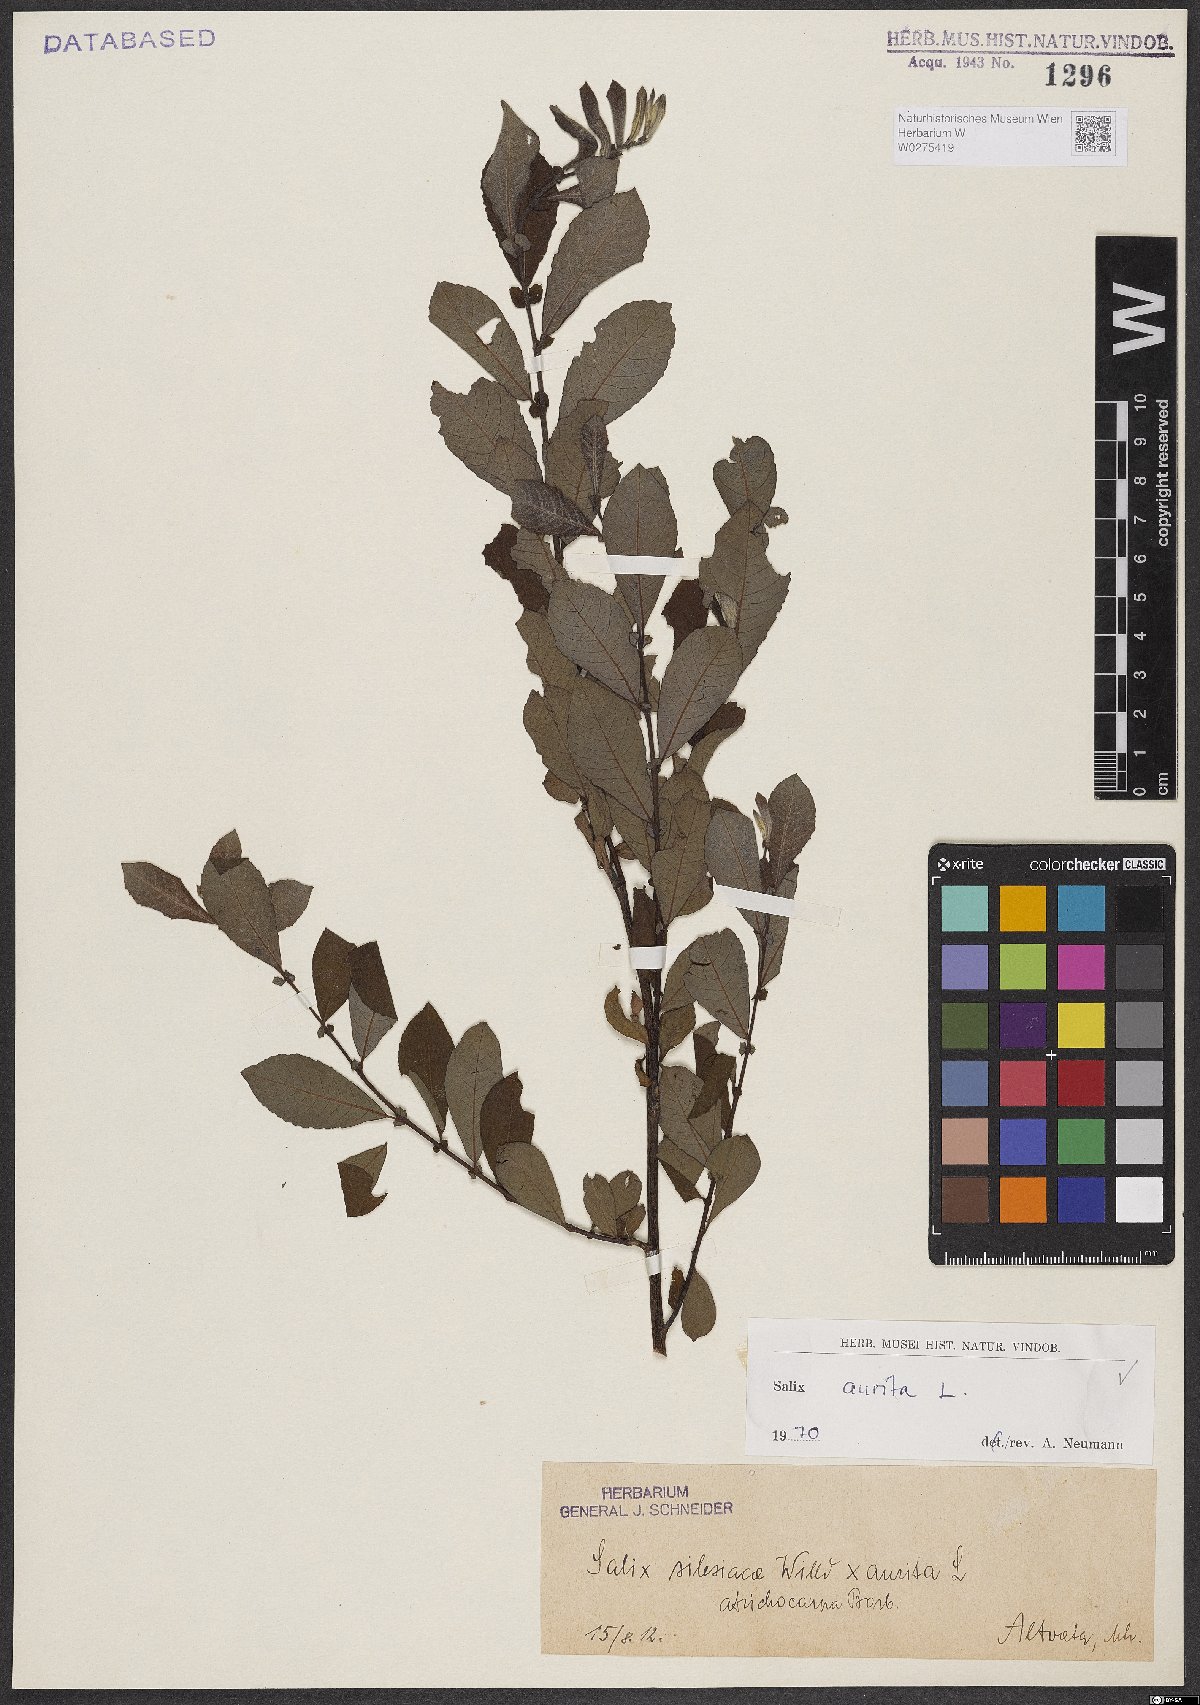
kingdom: Plantae
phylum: Tracheophyta
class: Magnoliopsida
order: Malpighiales
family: Salicaceae
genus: Salix
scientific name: Salix aurita
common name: Eared willow
